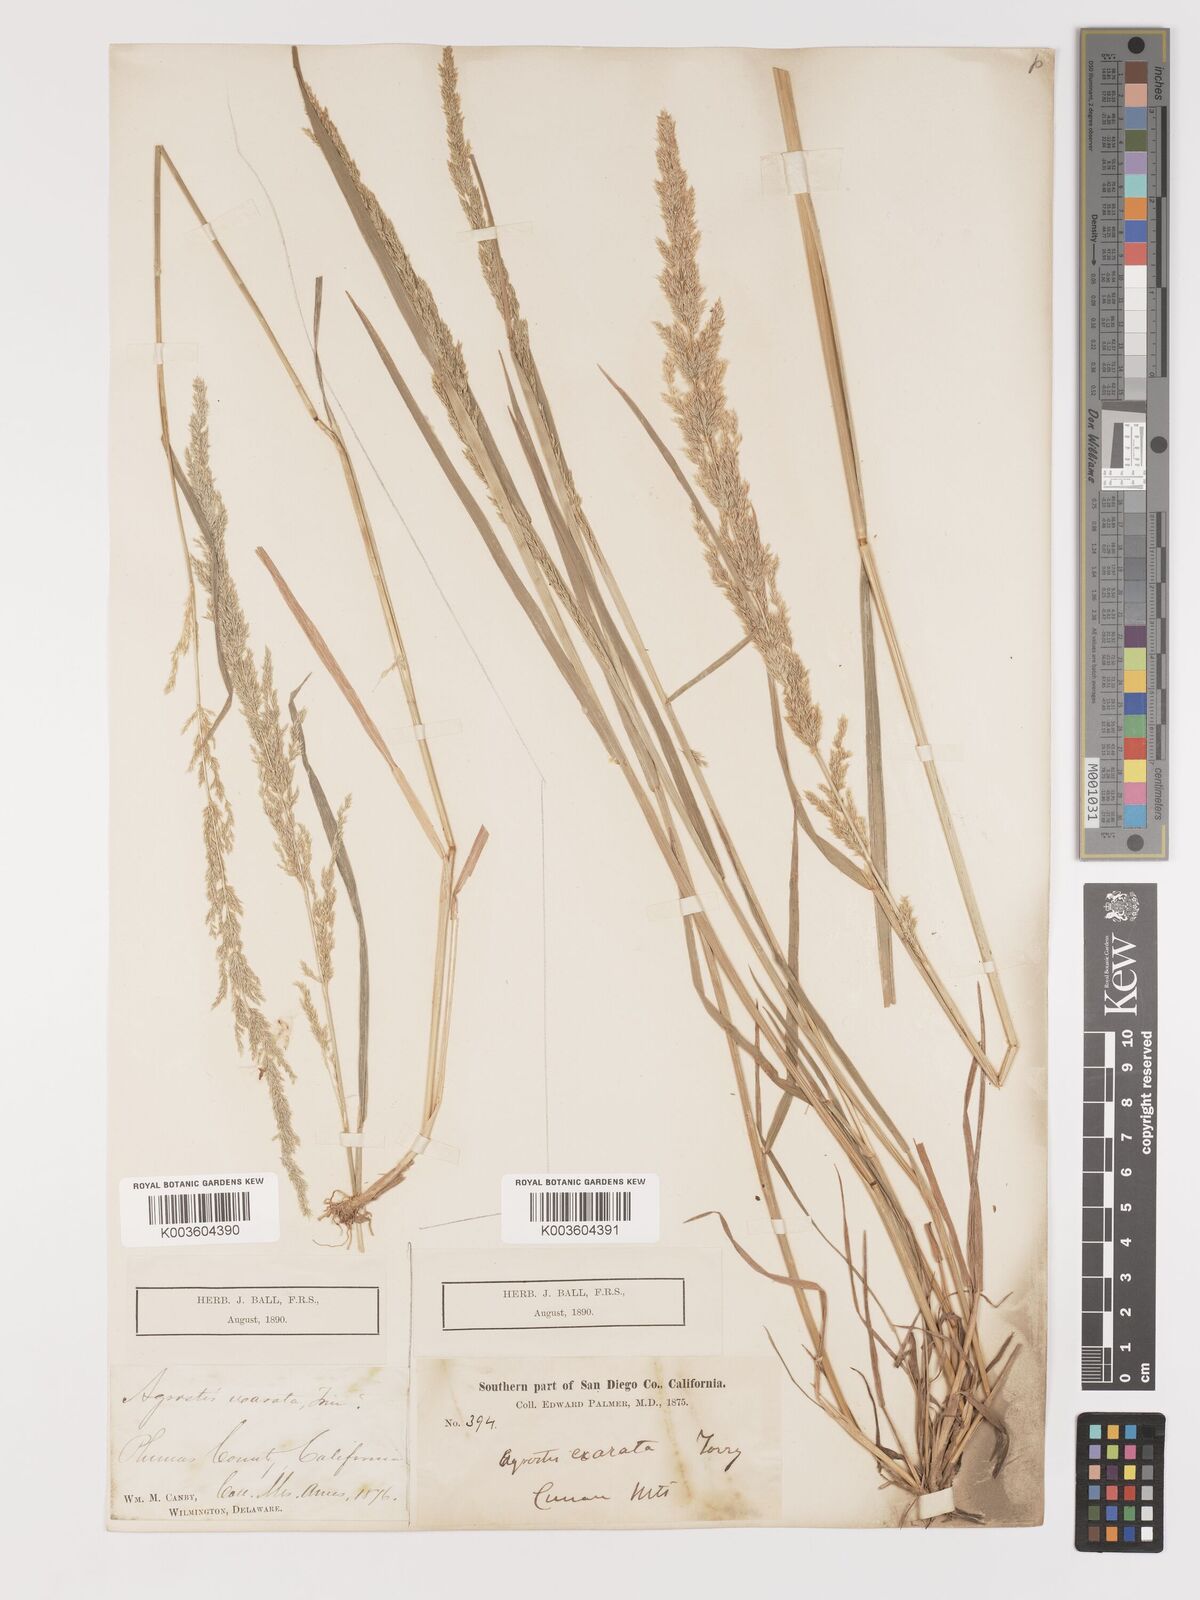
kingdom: Plantae
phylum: Tracheophyta
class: Liliopsida
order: Poales
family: Poaceae
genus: Agrostis
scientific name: Agrostis exarata
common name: Spike bent
